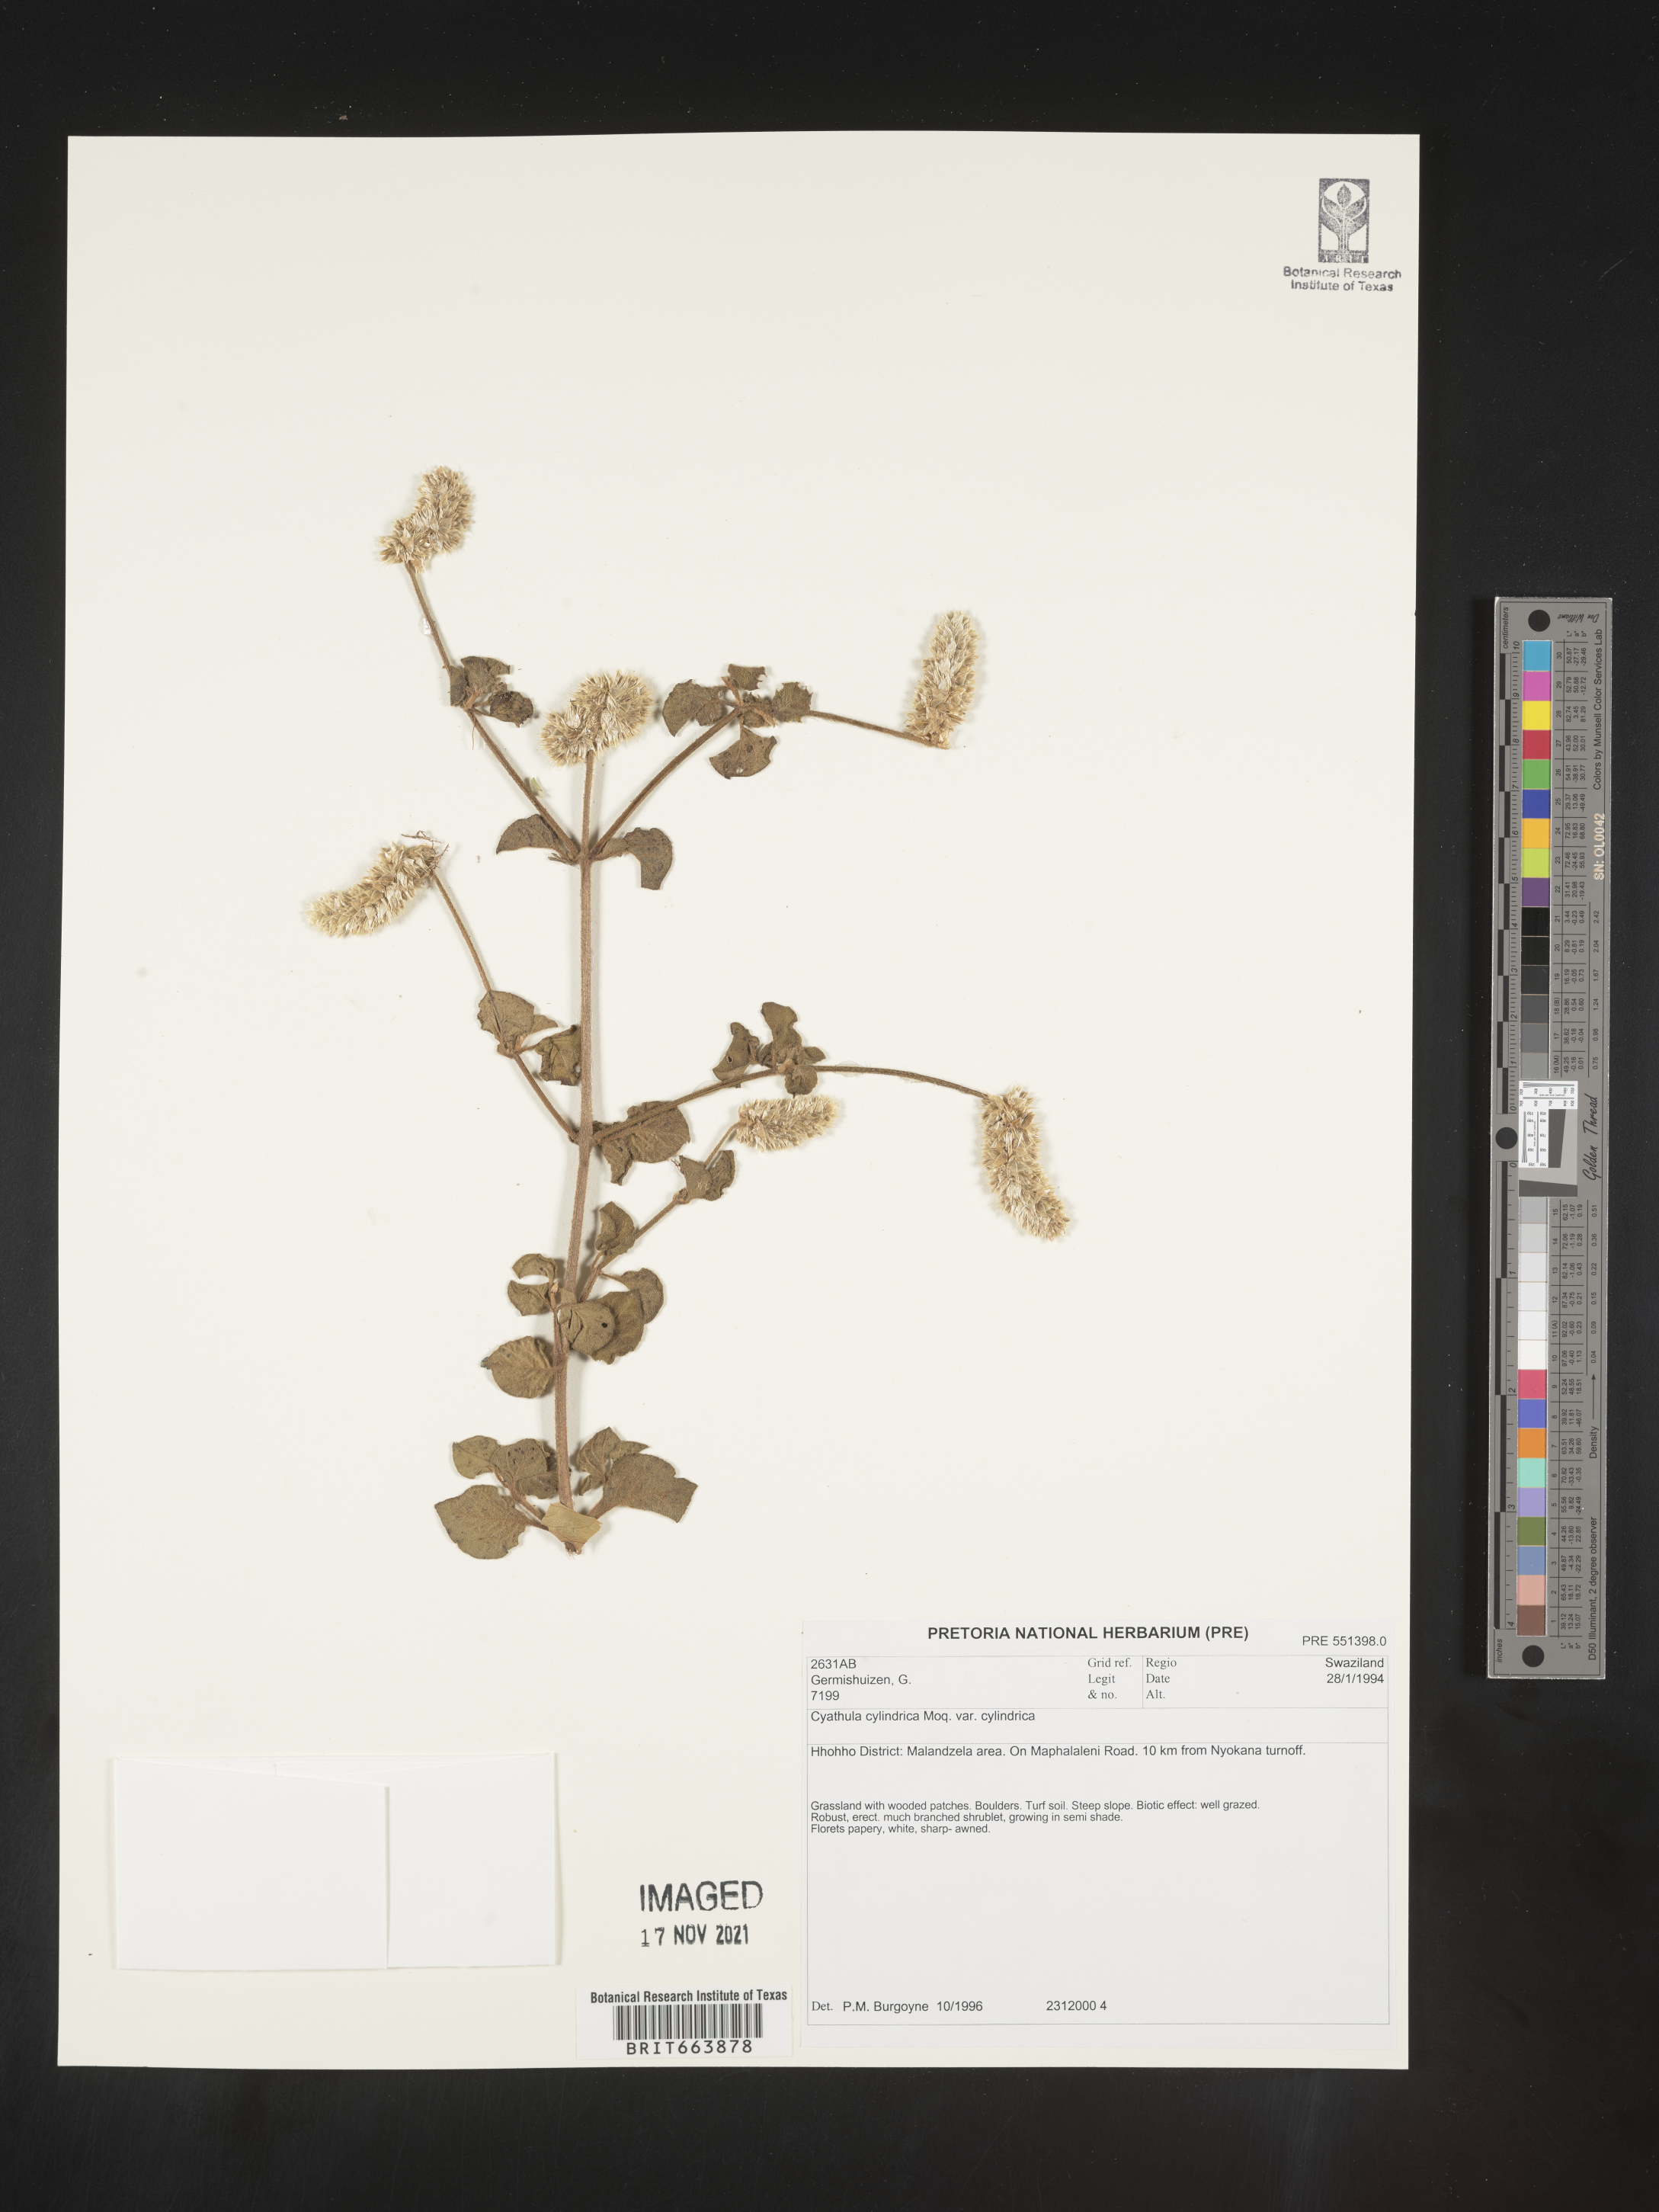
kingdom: Plantae
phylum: Tracheophyta
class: Magnoliopsida
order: Caryophyllales
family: Amaranthaceae
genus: Cyathula
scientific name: Cyathula
